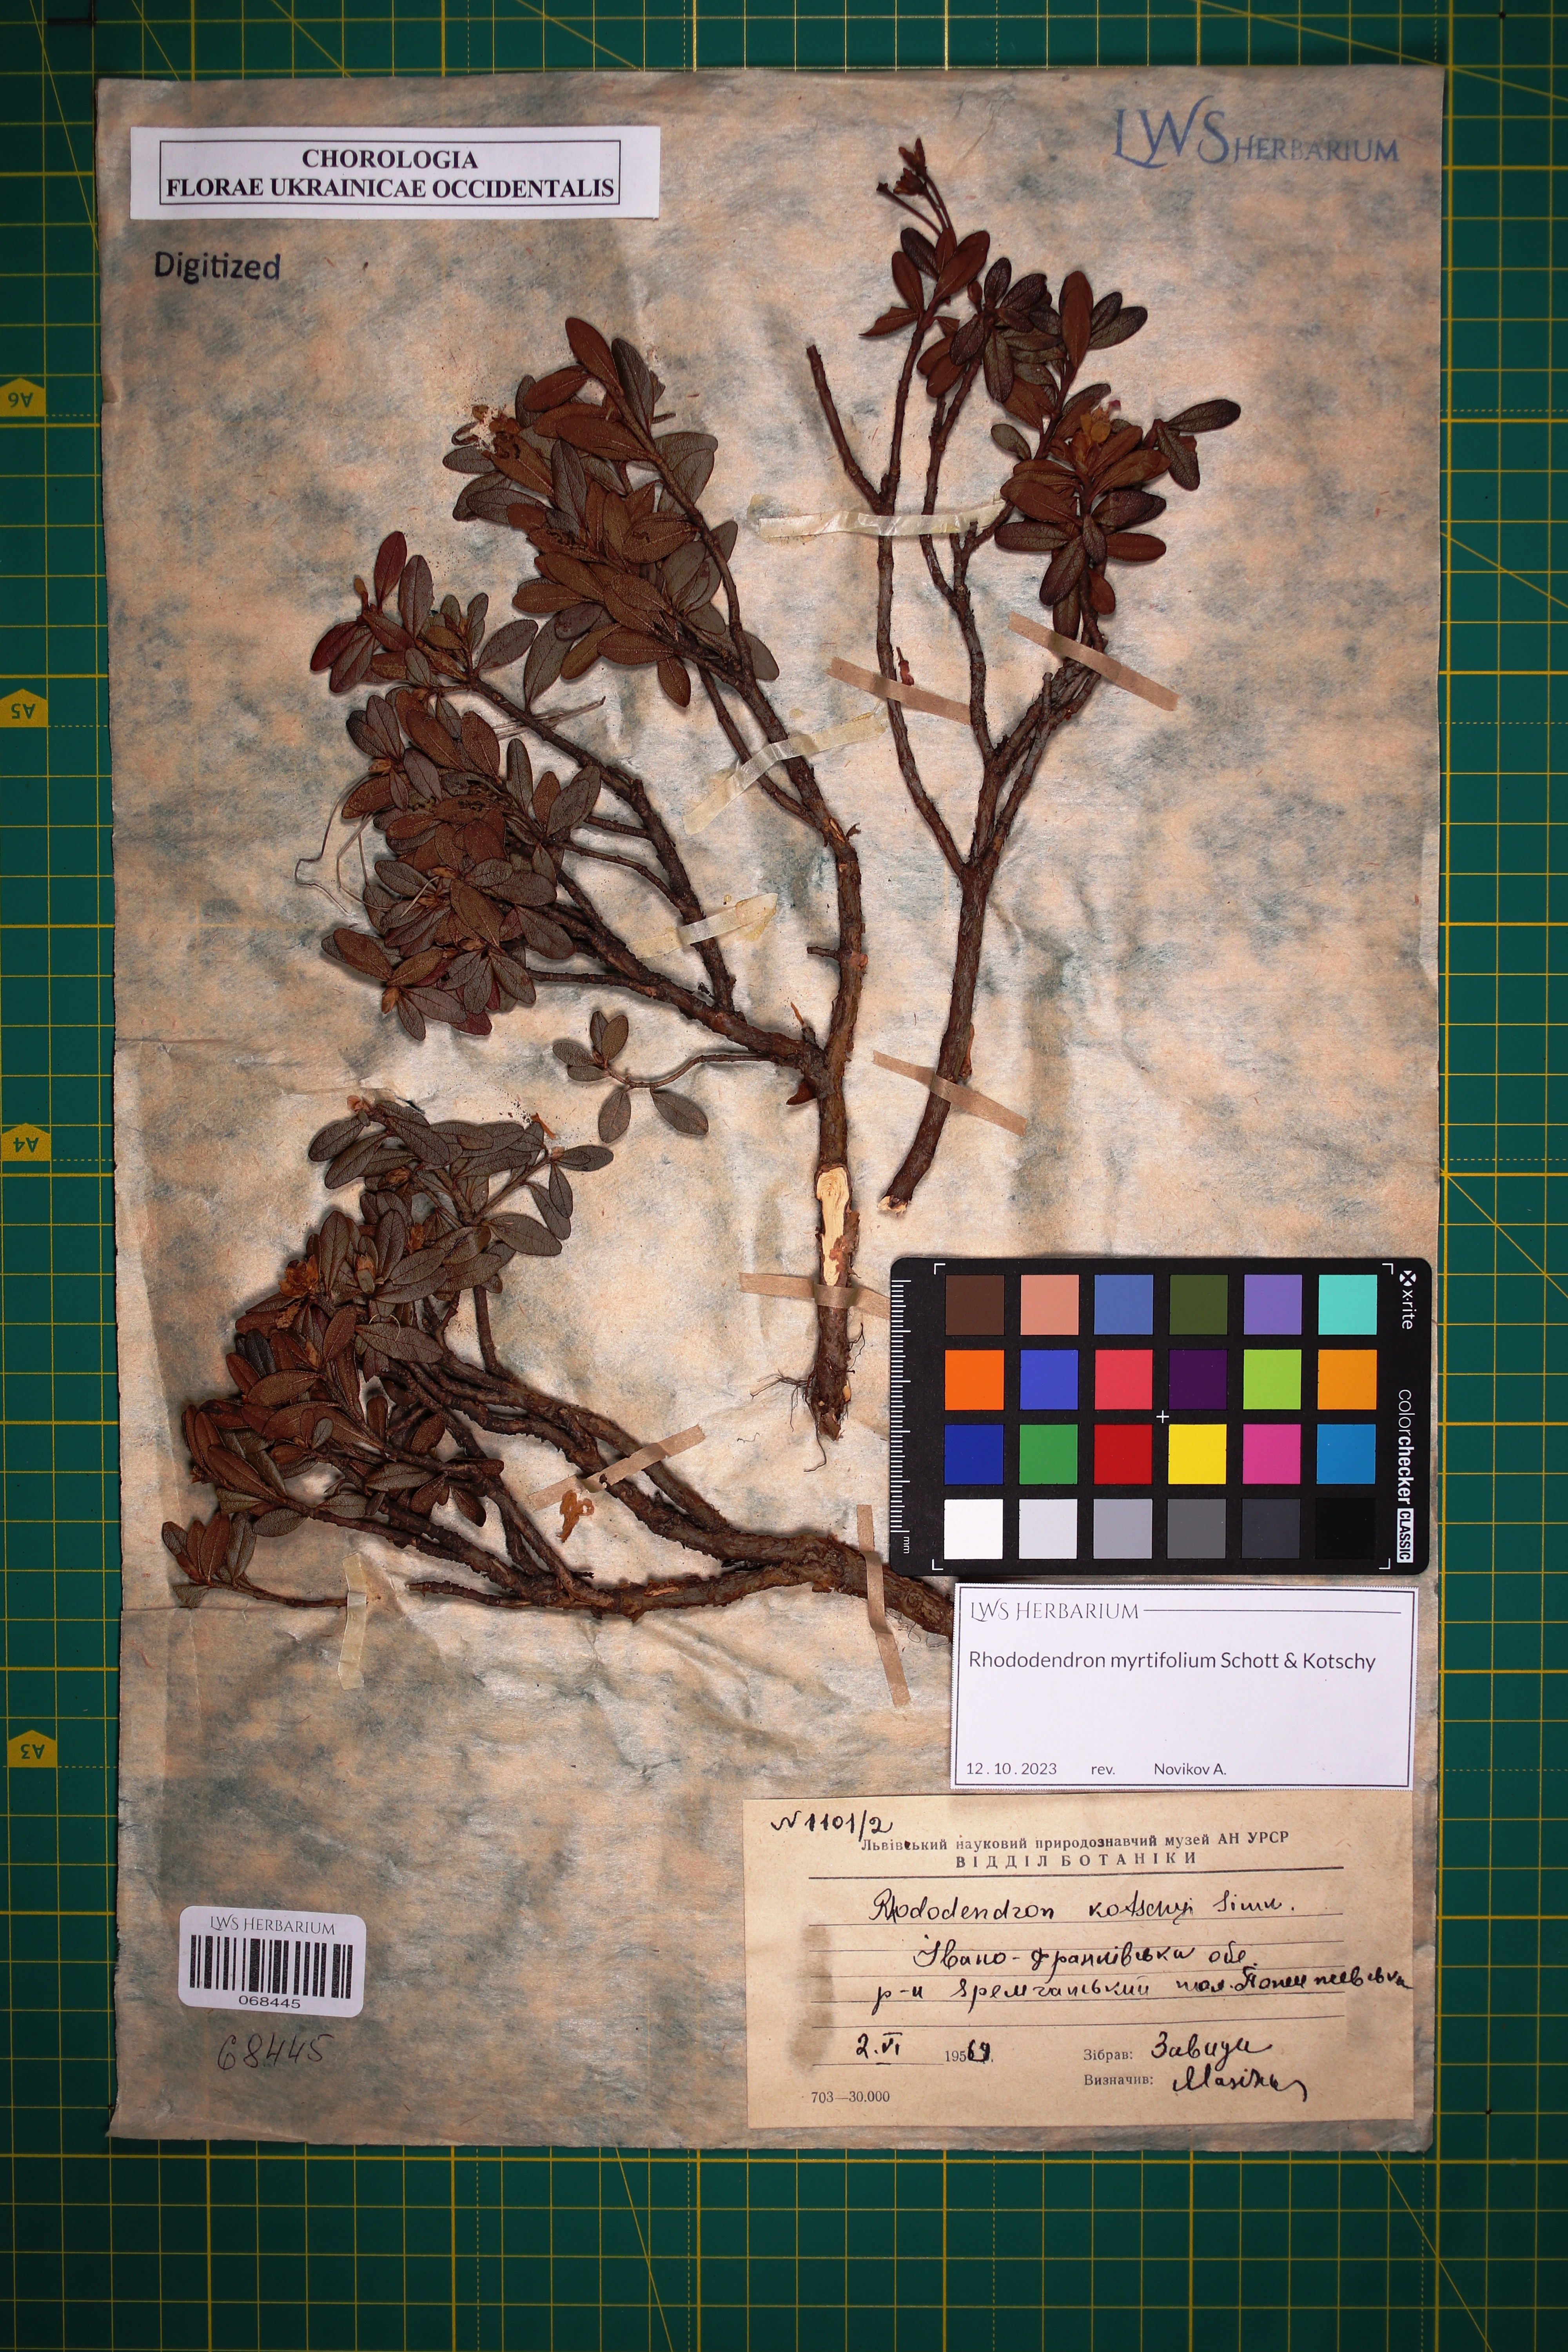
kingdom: Plantae
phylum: Tracheophyta
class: Magnoliopsida
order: Ericales
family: Ericaceae
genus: Rhododendron
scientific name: Rhododendron kotschyi
